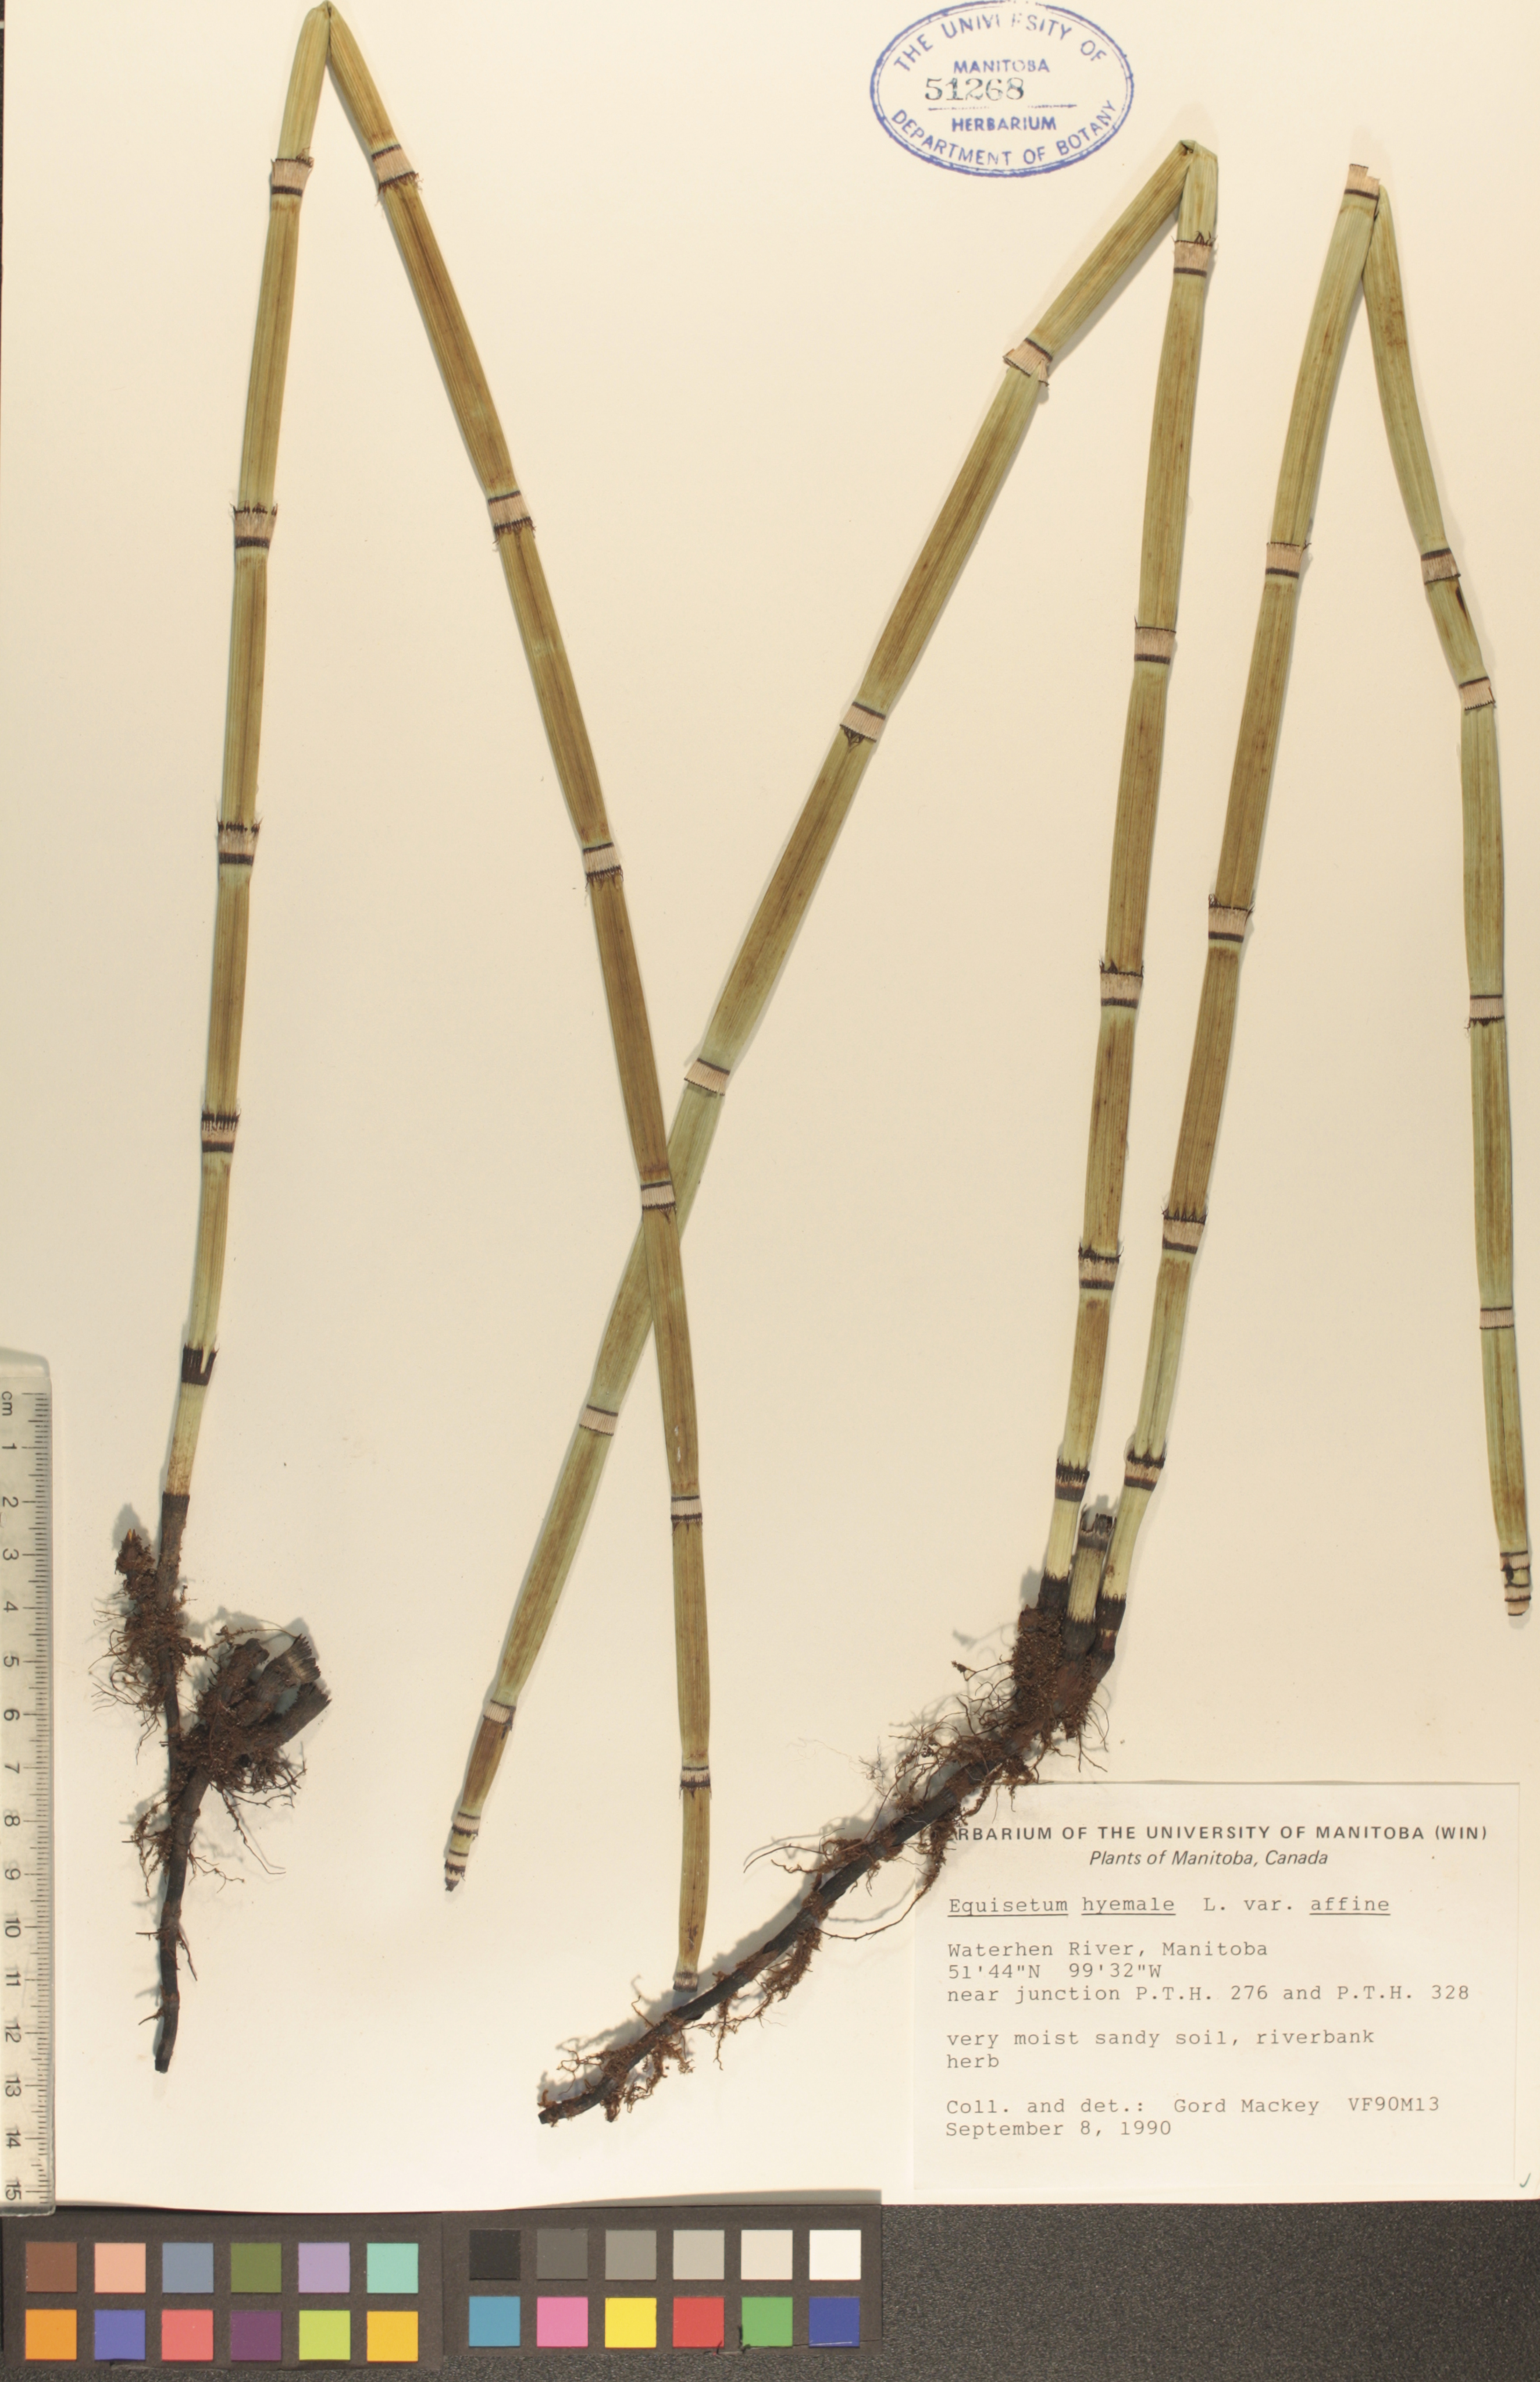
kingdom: Plantae
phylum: Tracheophyta
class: Polypodiopsida
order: Equisetales
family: Equisetaceae
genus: Equisetum
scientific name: Equisetum hyemale
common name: Rough horsetail
